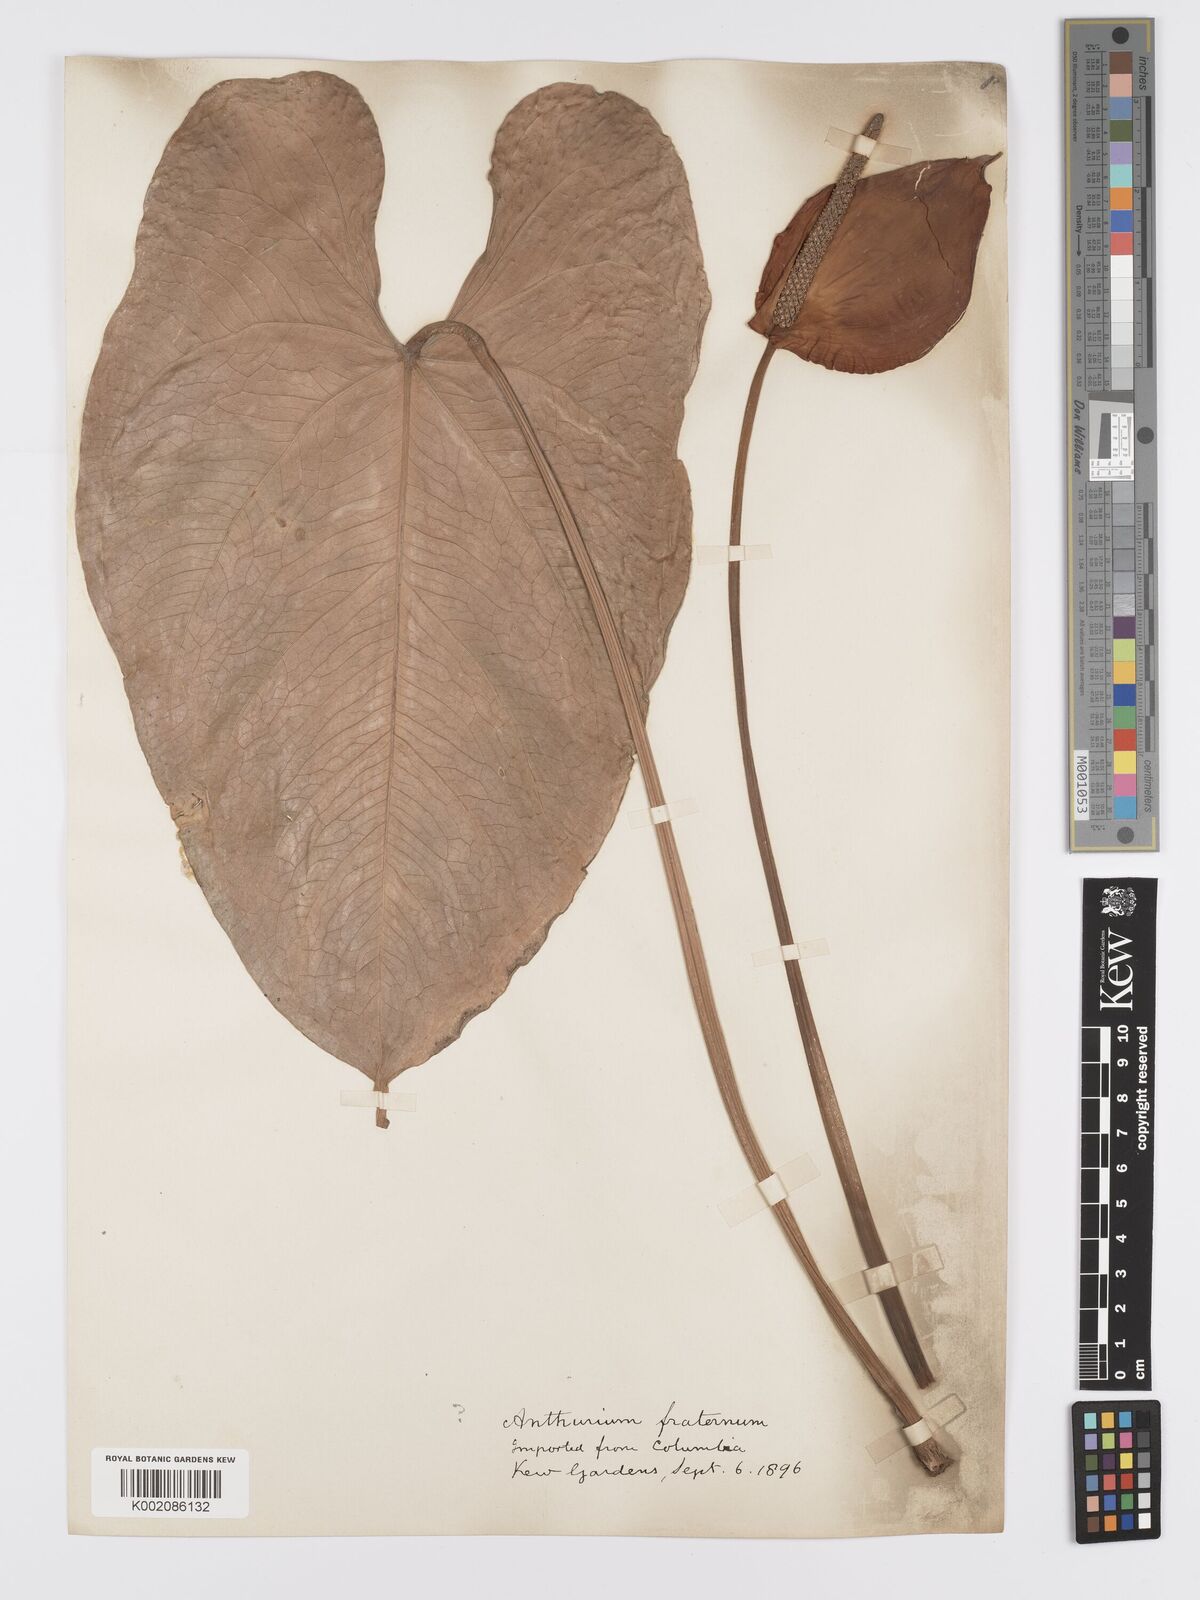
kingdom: Plantae
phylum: Tracheophyta
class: Liliopsida
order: Alismatales
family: Araceae
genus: Anthurium
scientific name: Anthurium nymphaeifolium
